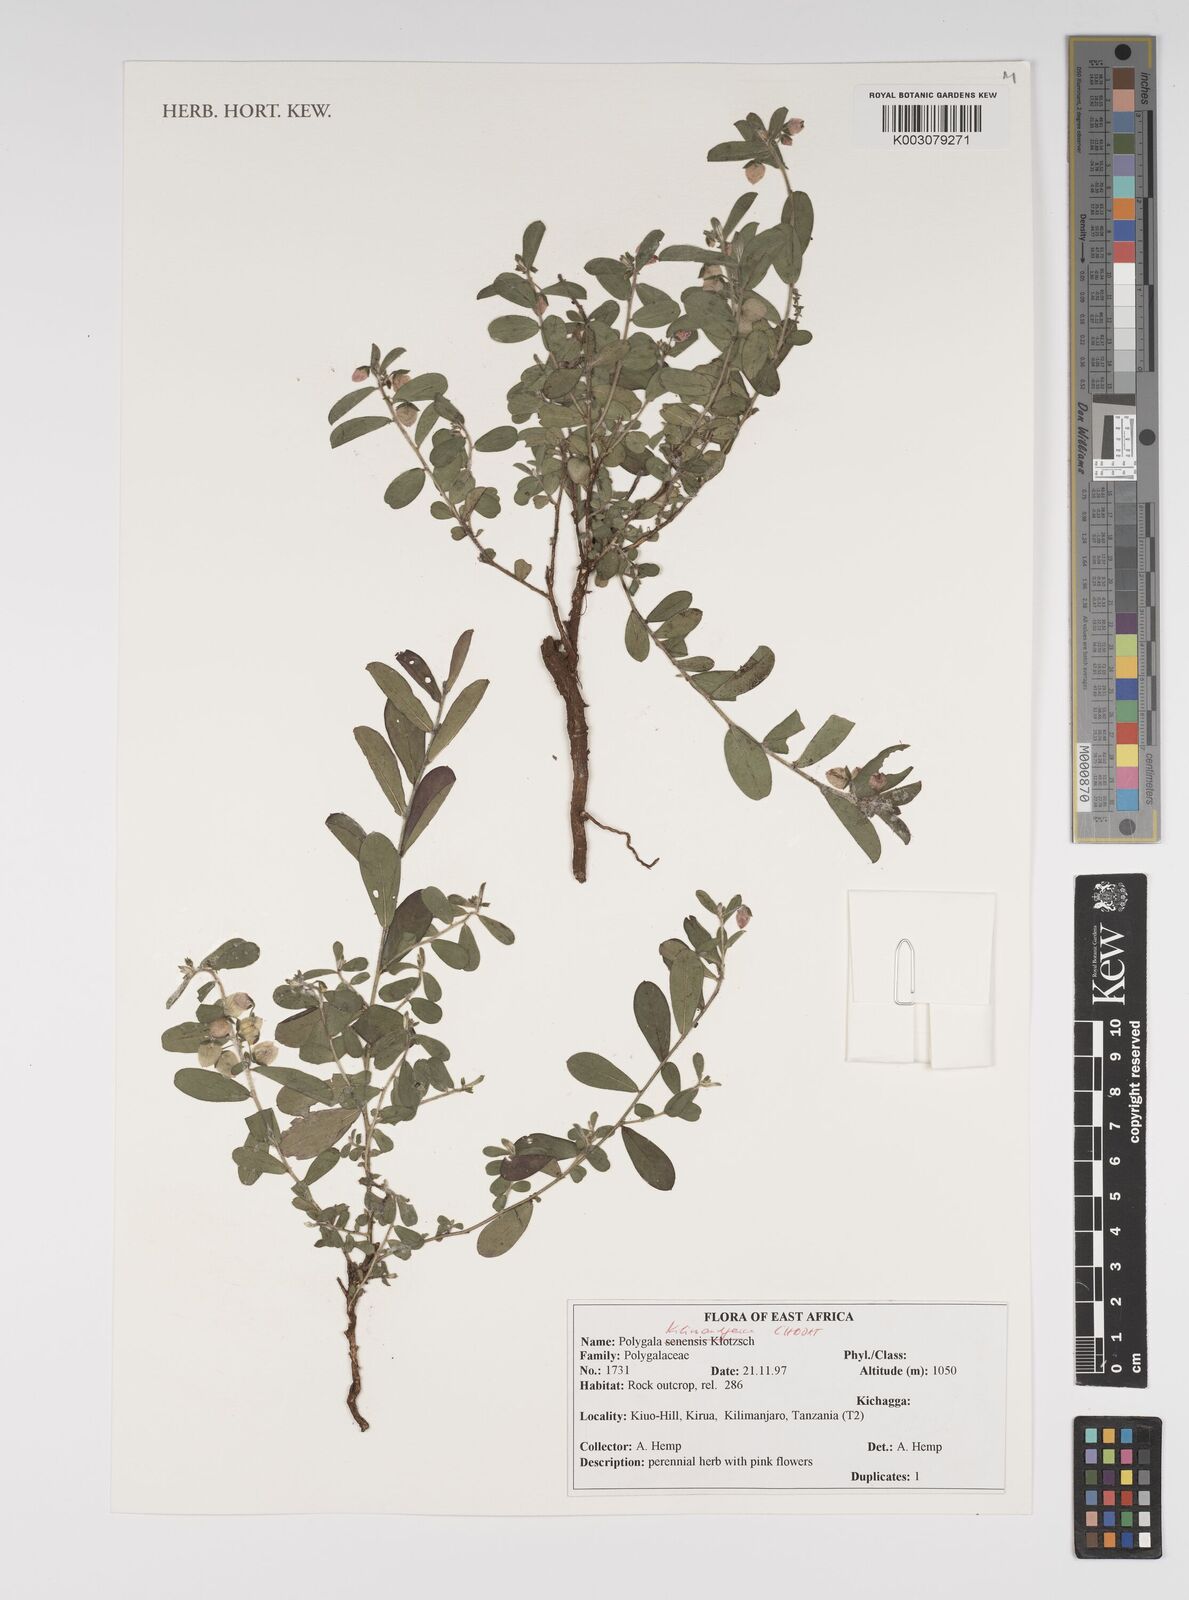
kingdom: Plantae
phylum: Tracheophyta
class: Magnoliopsida
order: Fabales
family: Polygalaceae
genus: Polygala
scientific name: Polygala kilimandjarica
